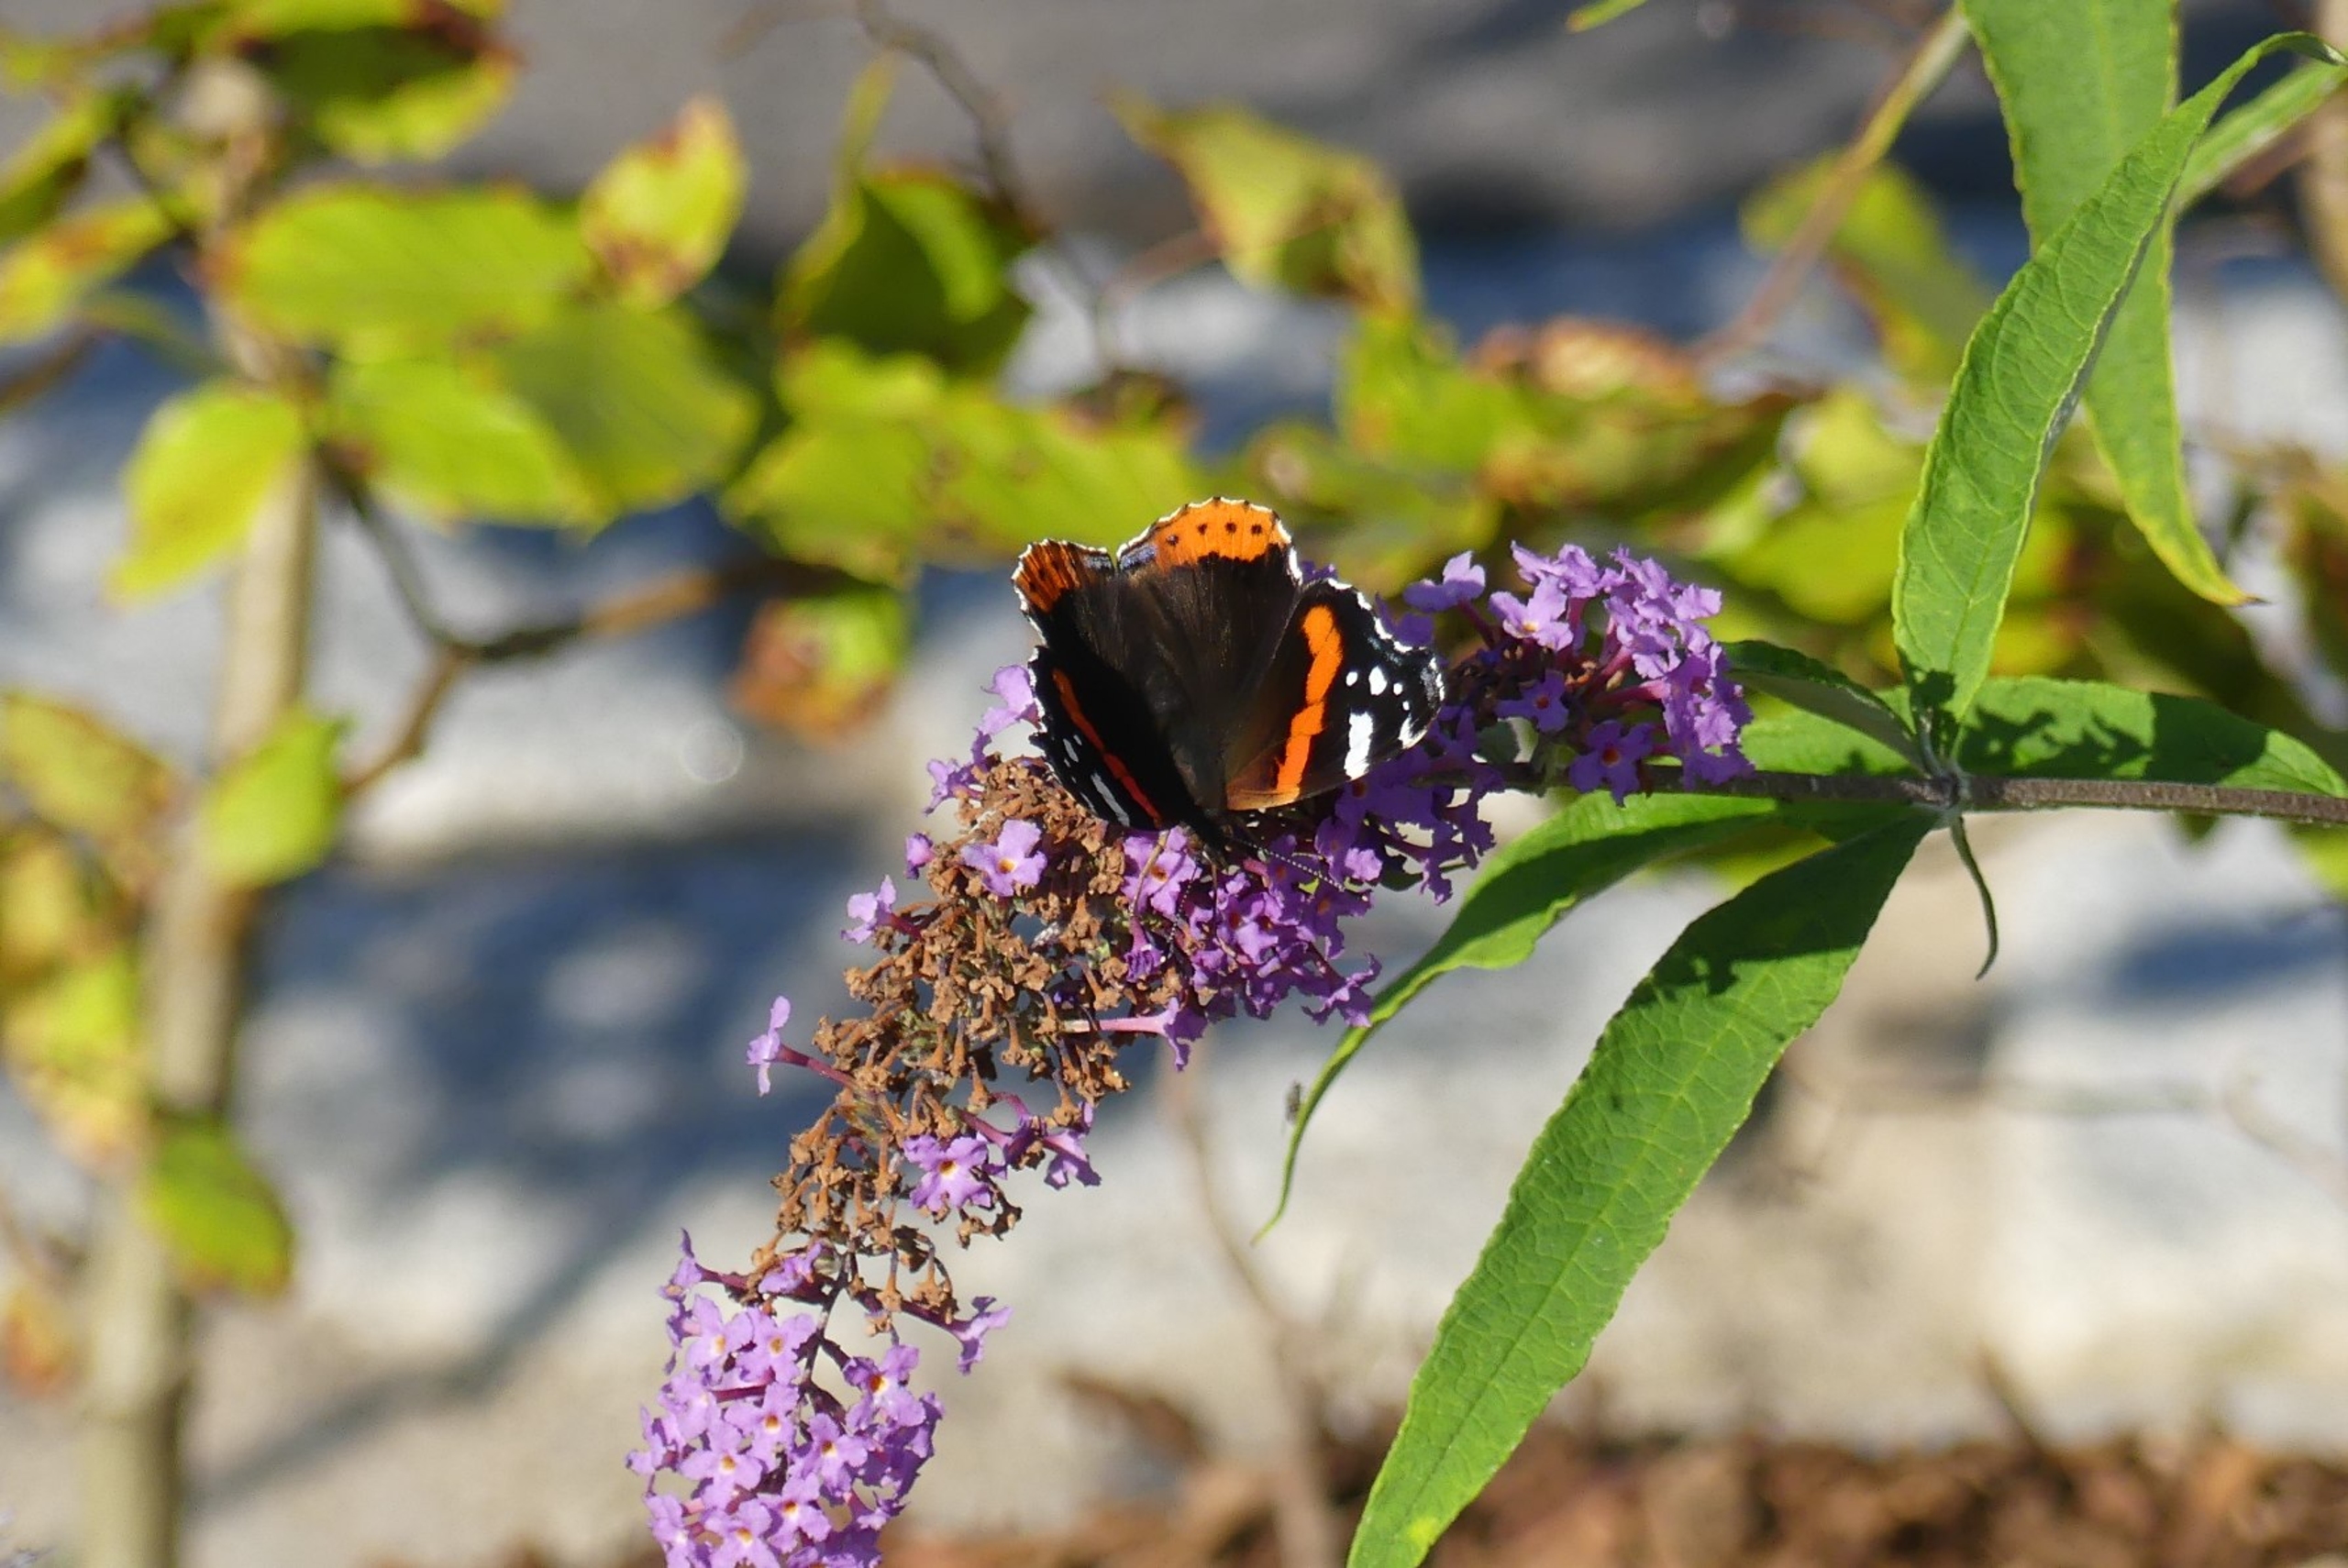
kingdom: Animalia
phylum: Arthropoda
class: Insecta
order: Lepidoptera
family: Nymphalidae
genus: Vanessa
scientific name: Vanessa atalanta
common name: Admiral
